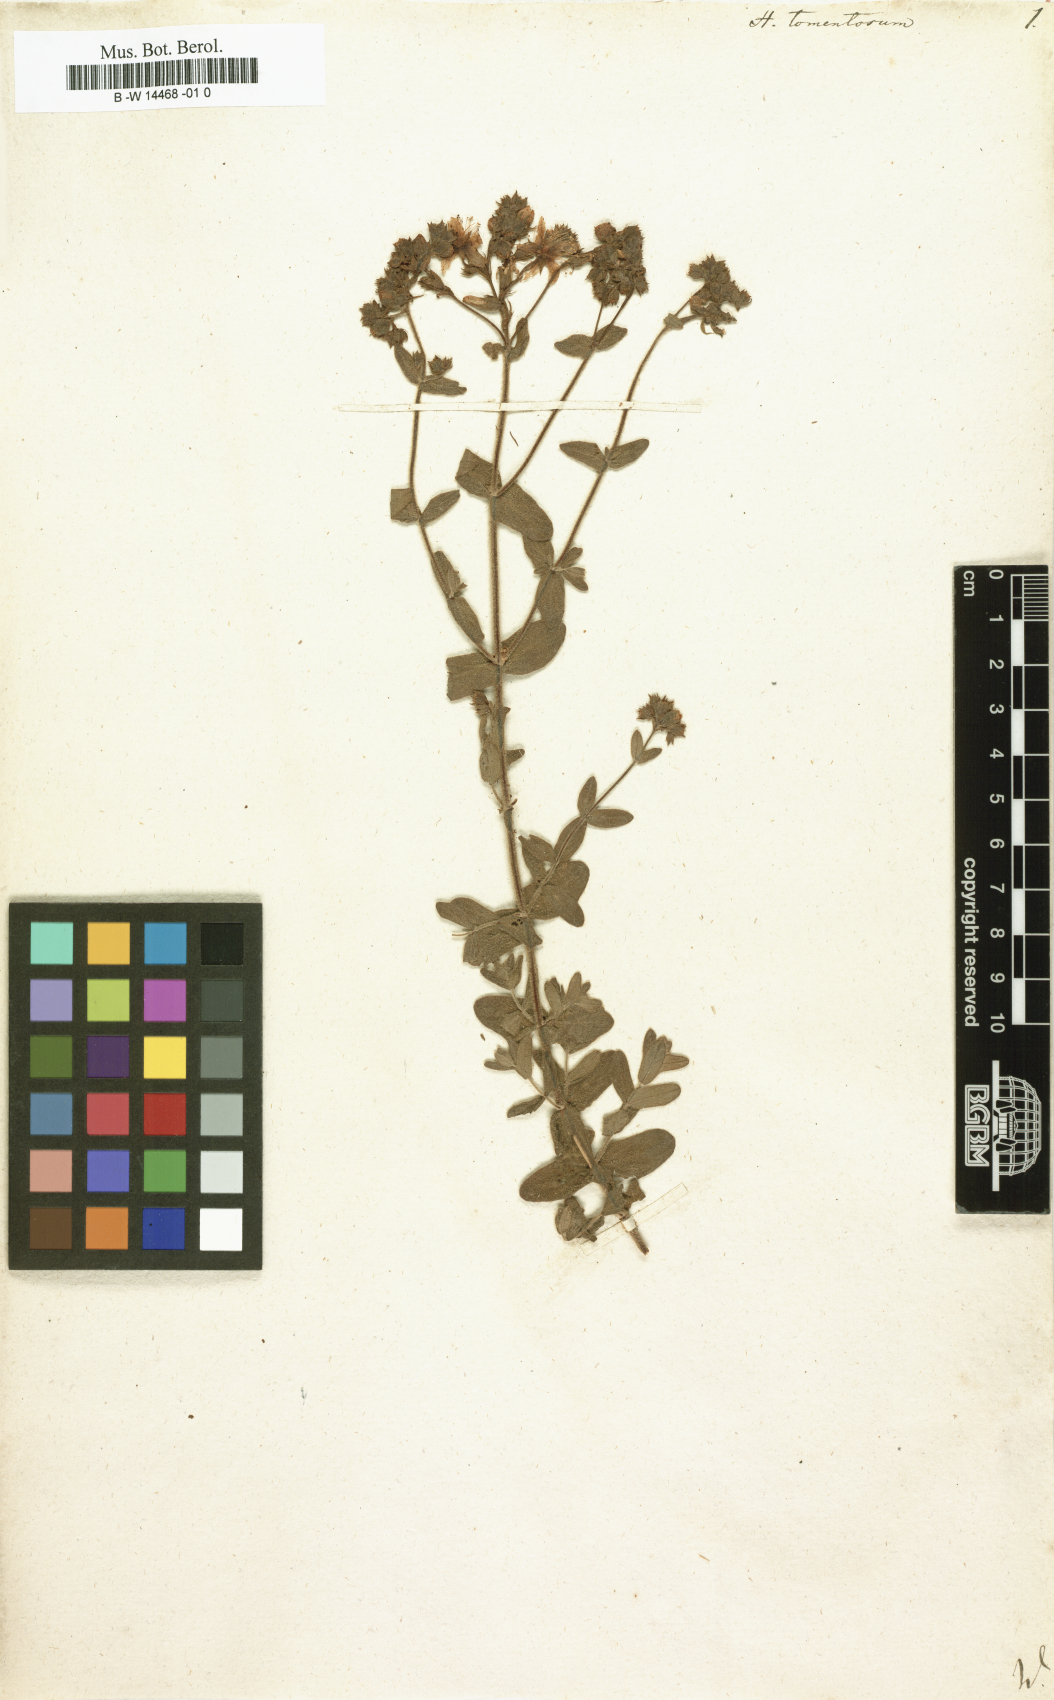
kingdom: Plantae
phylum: Tracheophyta
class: Magnoliopsida
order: Malpighiales
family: Hypericaceae
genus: Hypericum
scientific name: Hypericum tomentosum
